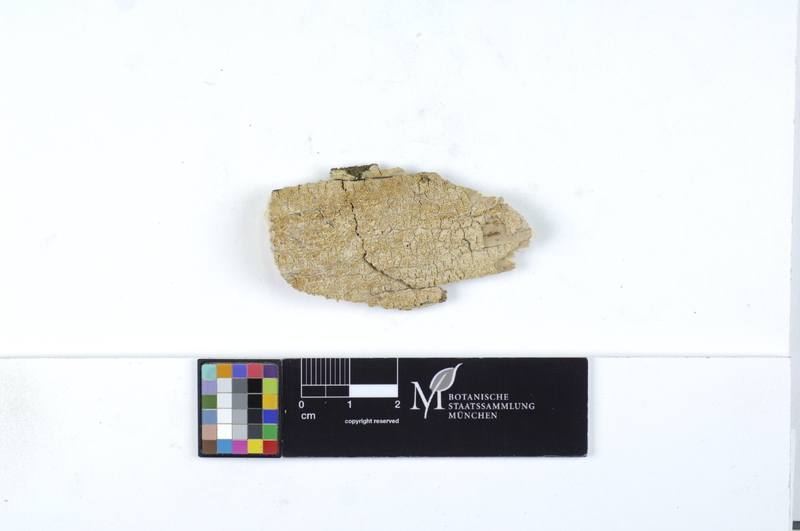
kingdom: Plantae
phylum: Tracheophyta
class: Pinopsida
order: Pinales
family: Pinaceae
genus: Picea
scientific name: Picea
